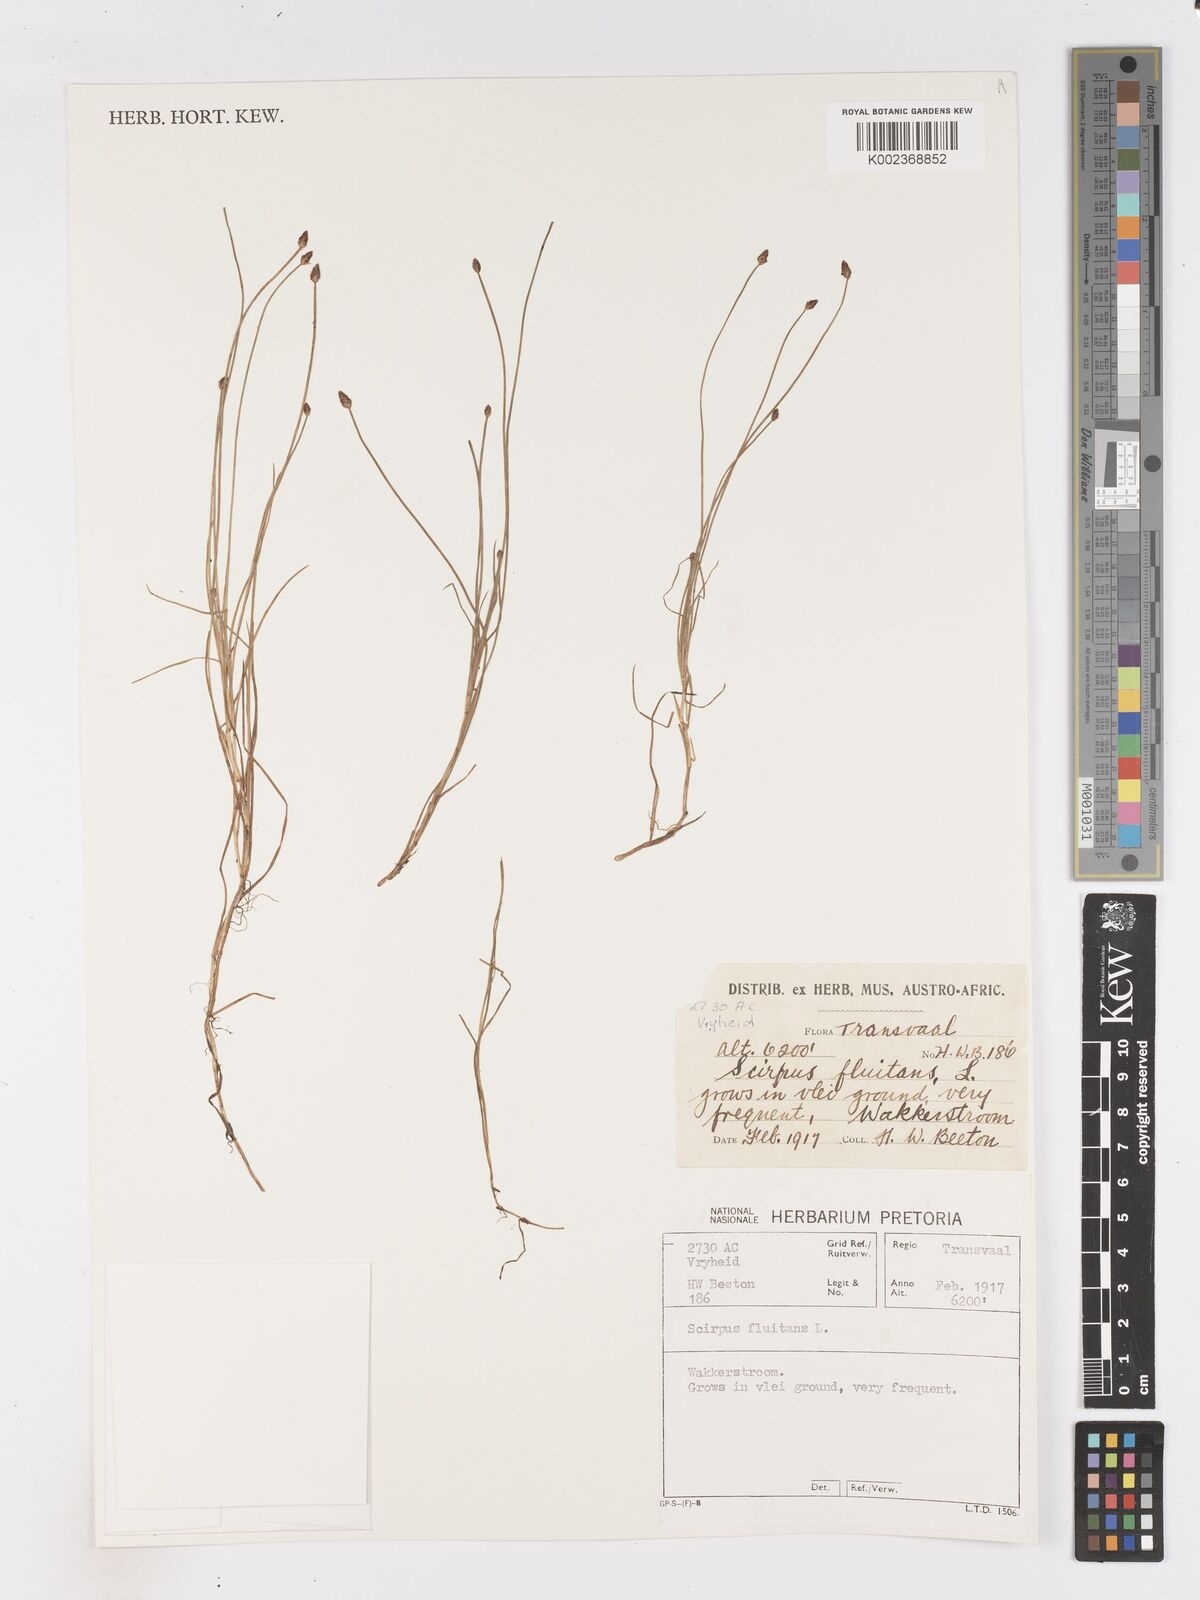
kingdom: Plantae
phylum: Tracheophyta
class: Liliopsida
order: Poales
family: Cyperaceae
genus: Isolepis
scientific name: Isolepis fluitans
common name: Floating club-rush
